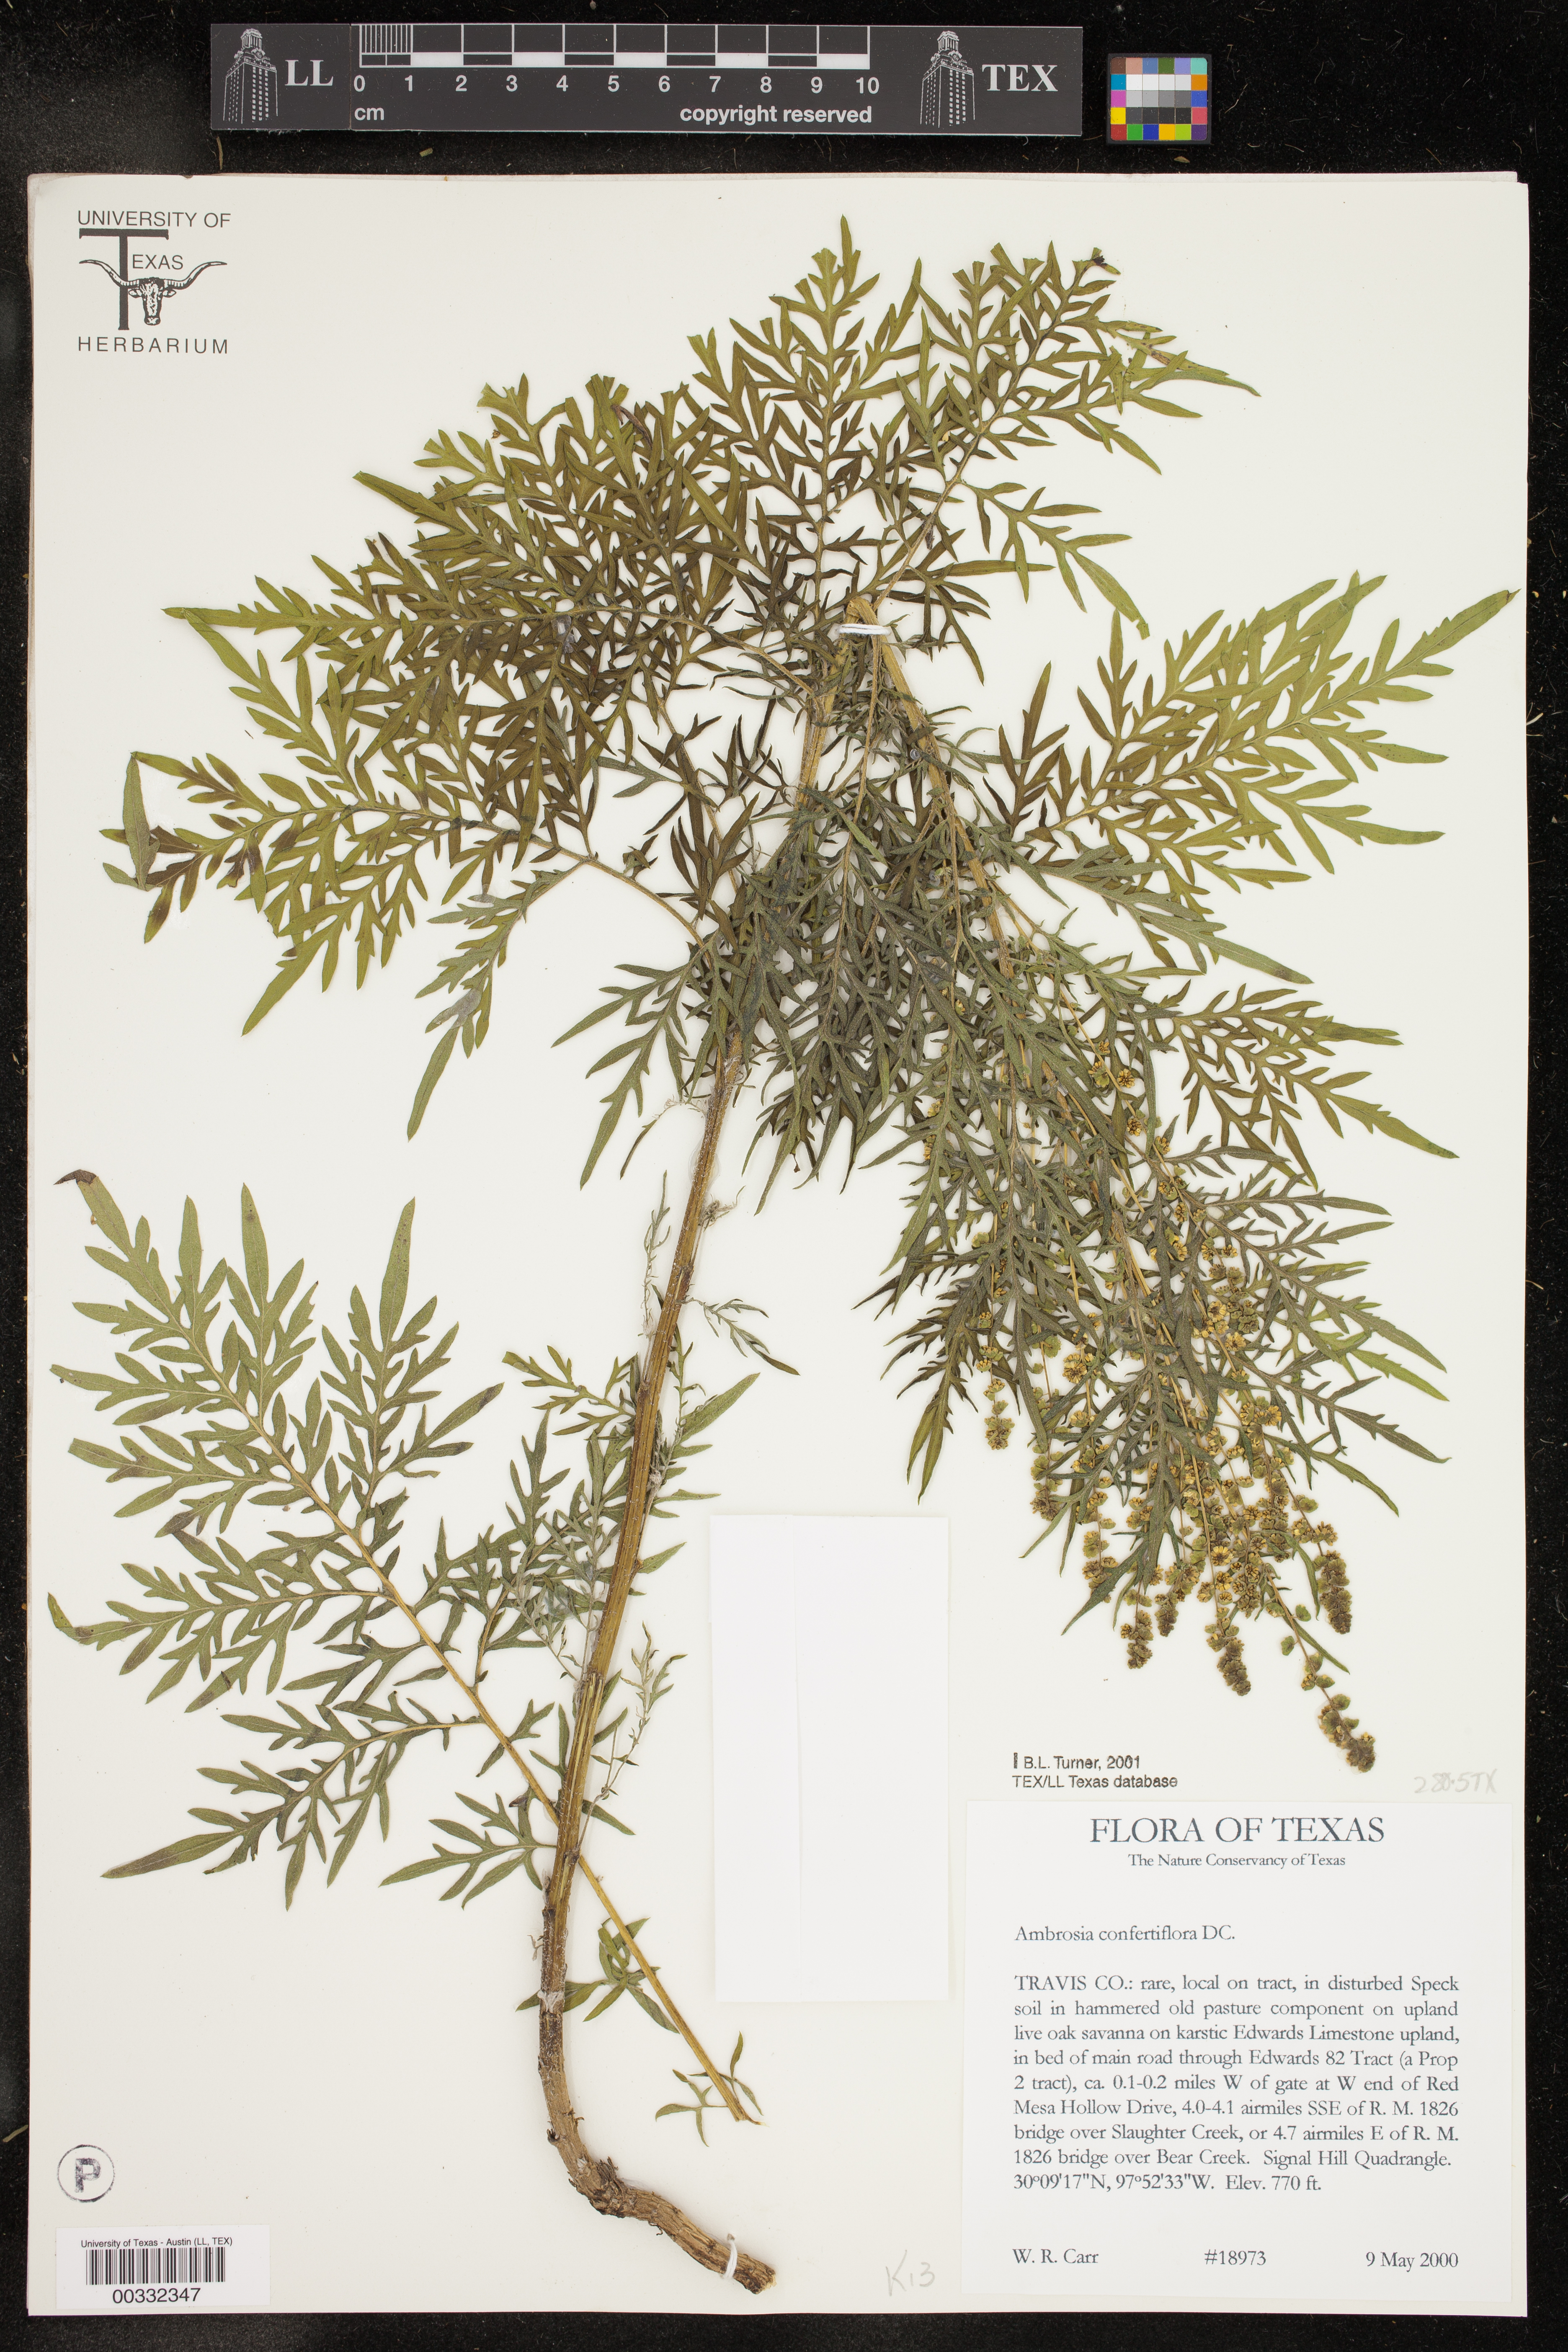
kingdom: Plantae
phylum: Tracheophyta
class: Magnoliopsida
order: Asterales
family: Asteraceae
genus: Ambrosia
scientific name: Ambrosia confertiflora
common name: Bur ragweed
